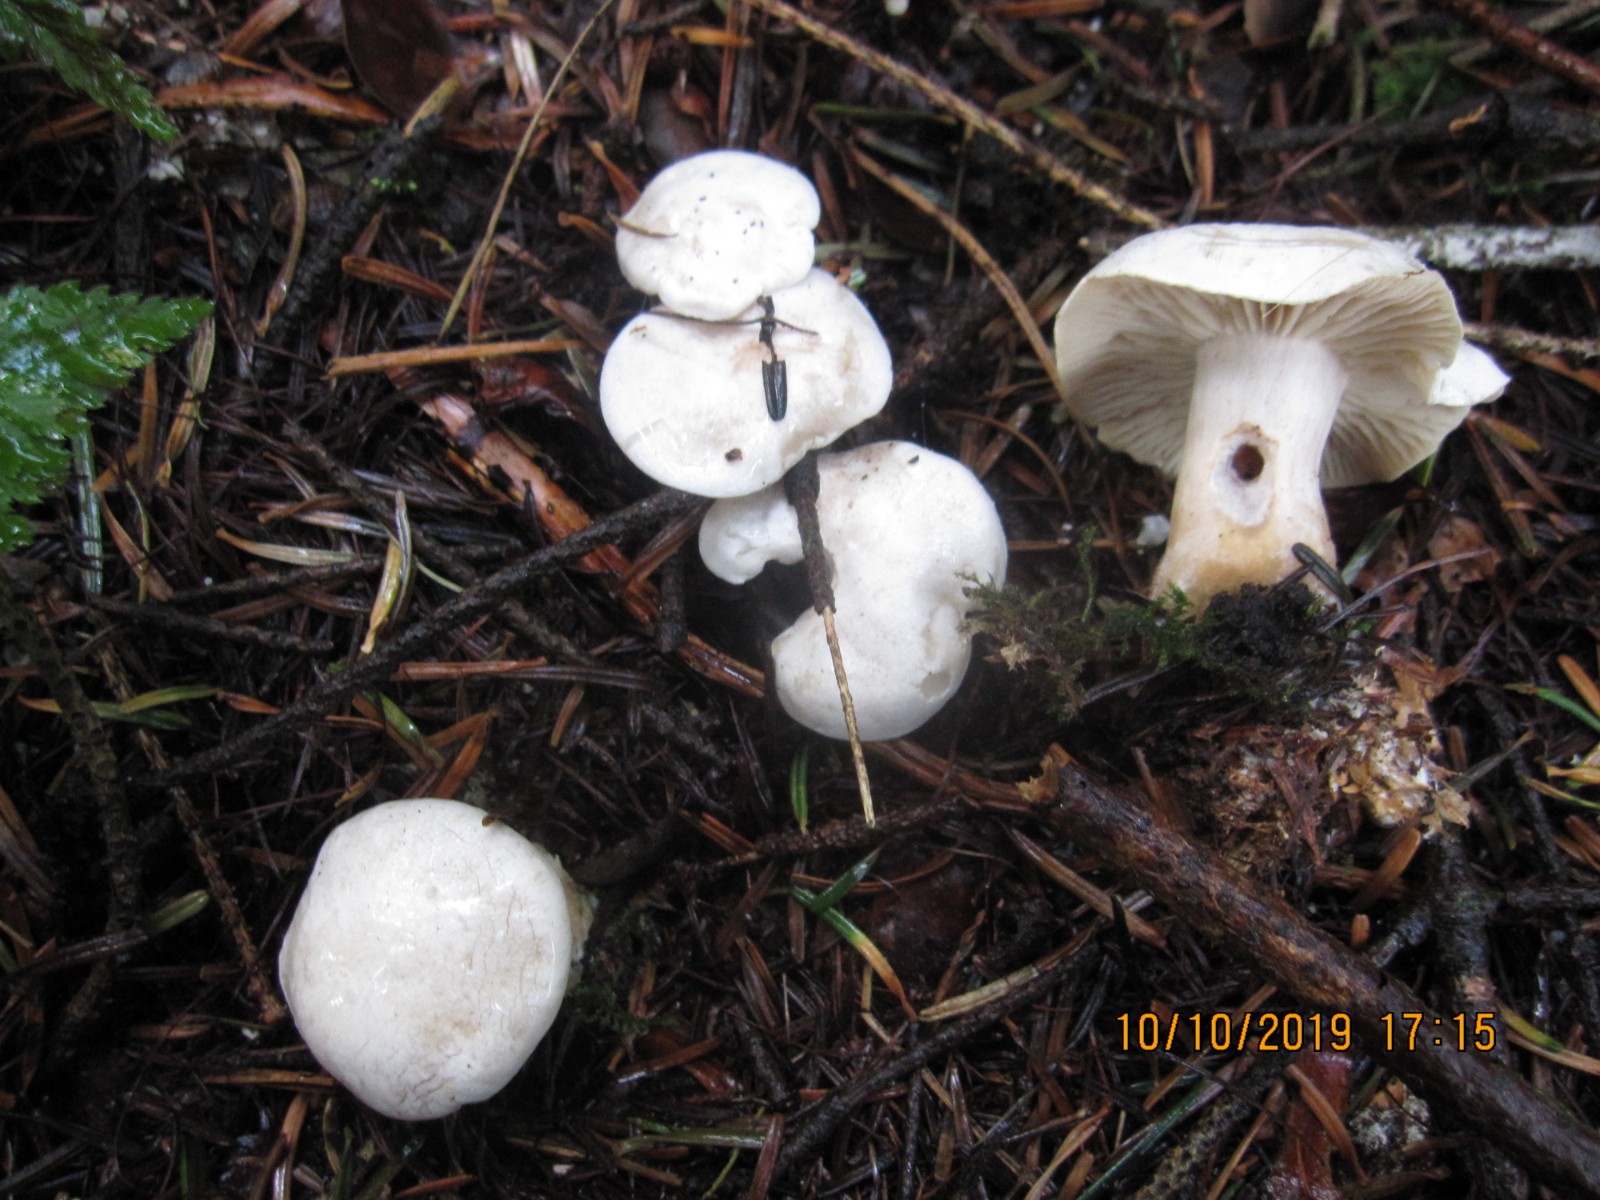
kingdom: Fungi
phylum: Basidiomycota
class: Agaricomycetes
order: Agaricales
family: Tricholomataceae
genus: Clitocybe
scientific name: Clitocybe phyllophila
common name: løv-tragthat
